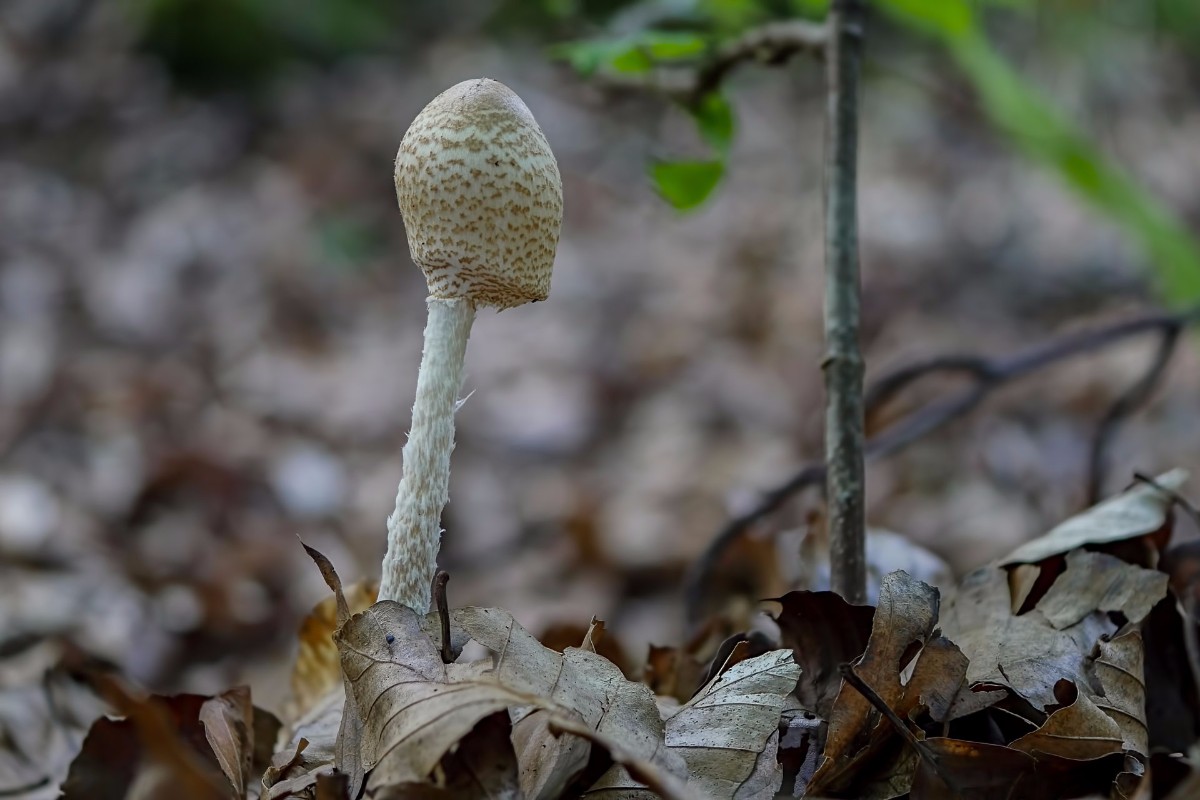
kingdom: Fungi
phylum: Basidiomycota
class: Agaricomycetes
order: Agaricales
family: Agaricaceae
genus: Lepiota
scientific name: Lepiota clypeolaria
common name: flosset parasolhat
